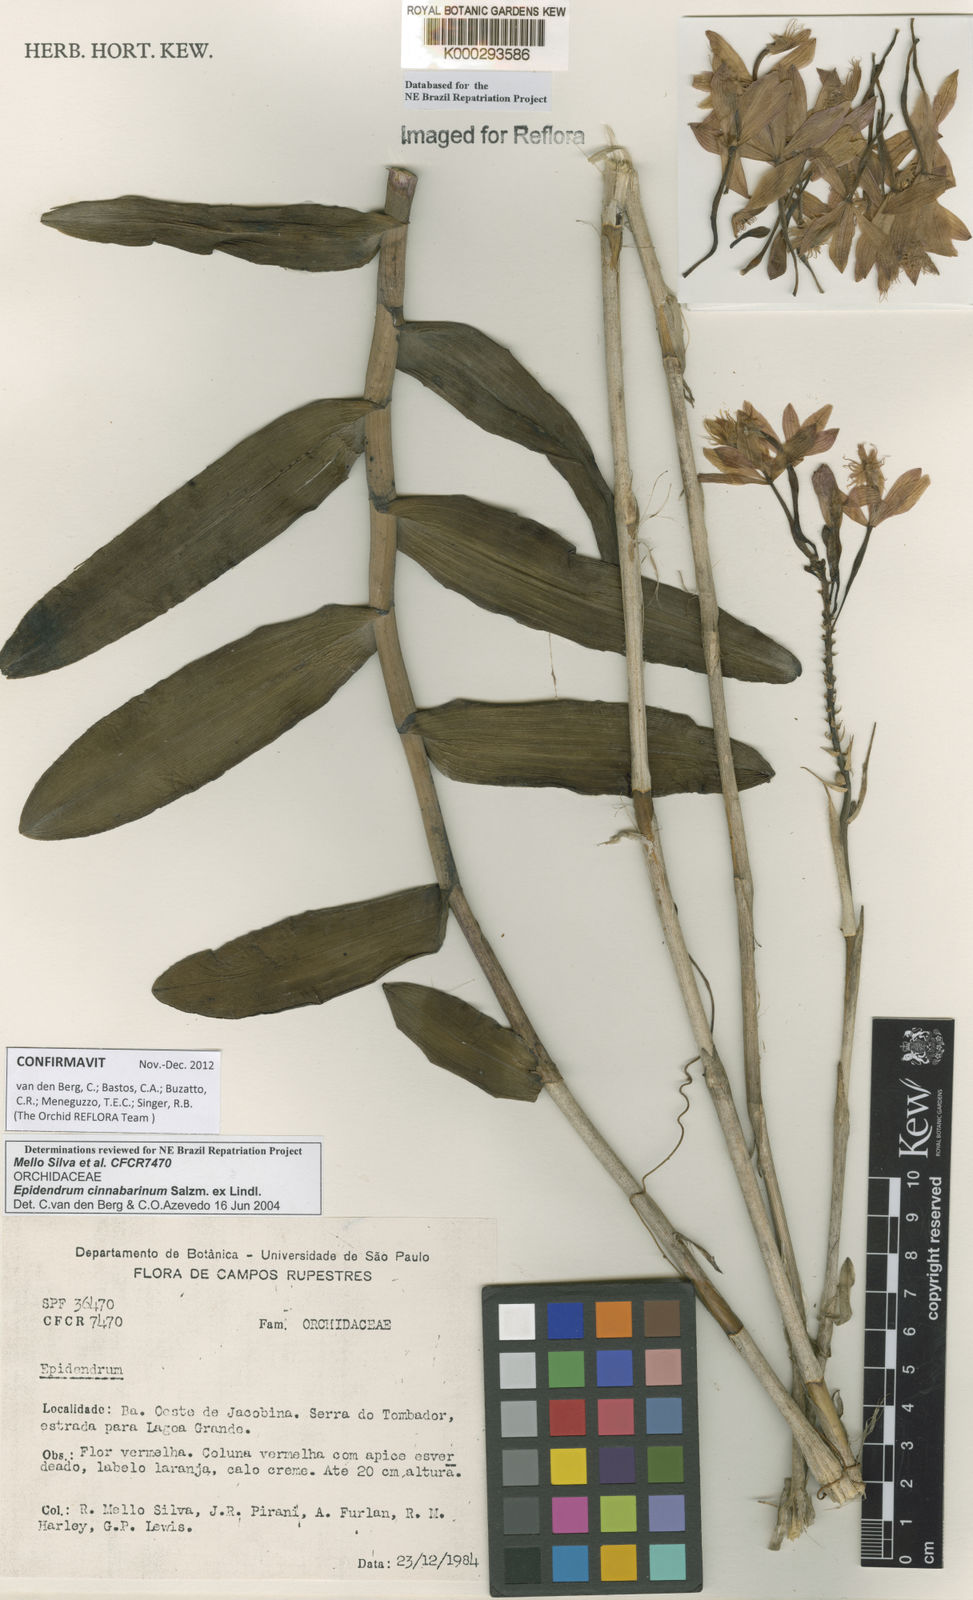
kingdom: Plantae
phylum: Tracheophyta
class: Liliopsida
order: Asparagales
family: Orchidaceae
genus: Epidendrum
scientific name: Epidendrum cinnabarinum
